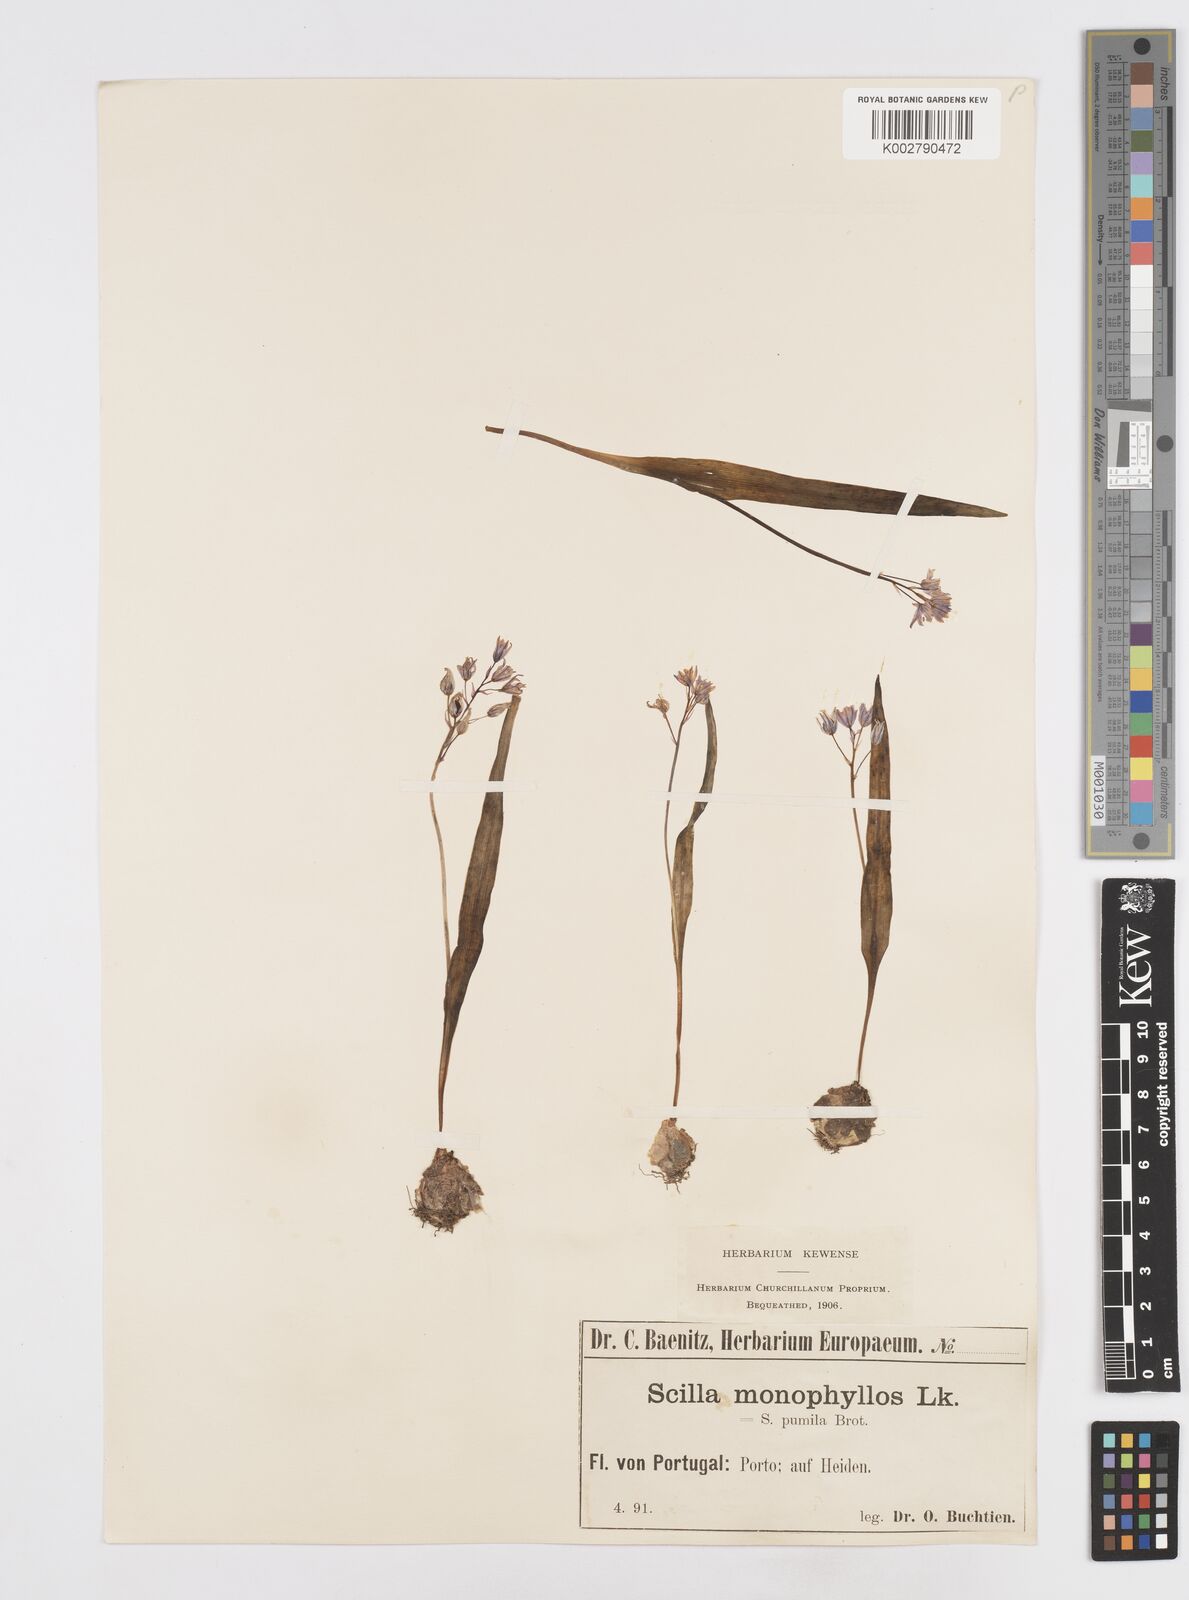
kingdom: Plantae
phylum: Tracheophyta
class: Liliopsida
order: Asparagales
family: Asparagaceae
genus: Scilla
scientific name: Scilla monophyllos
